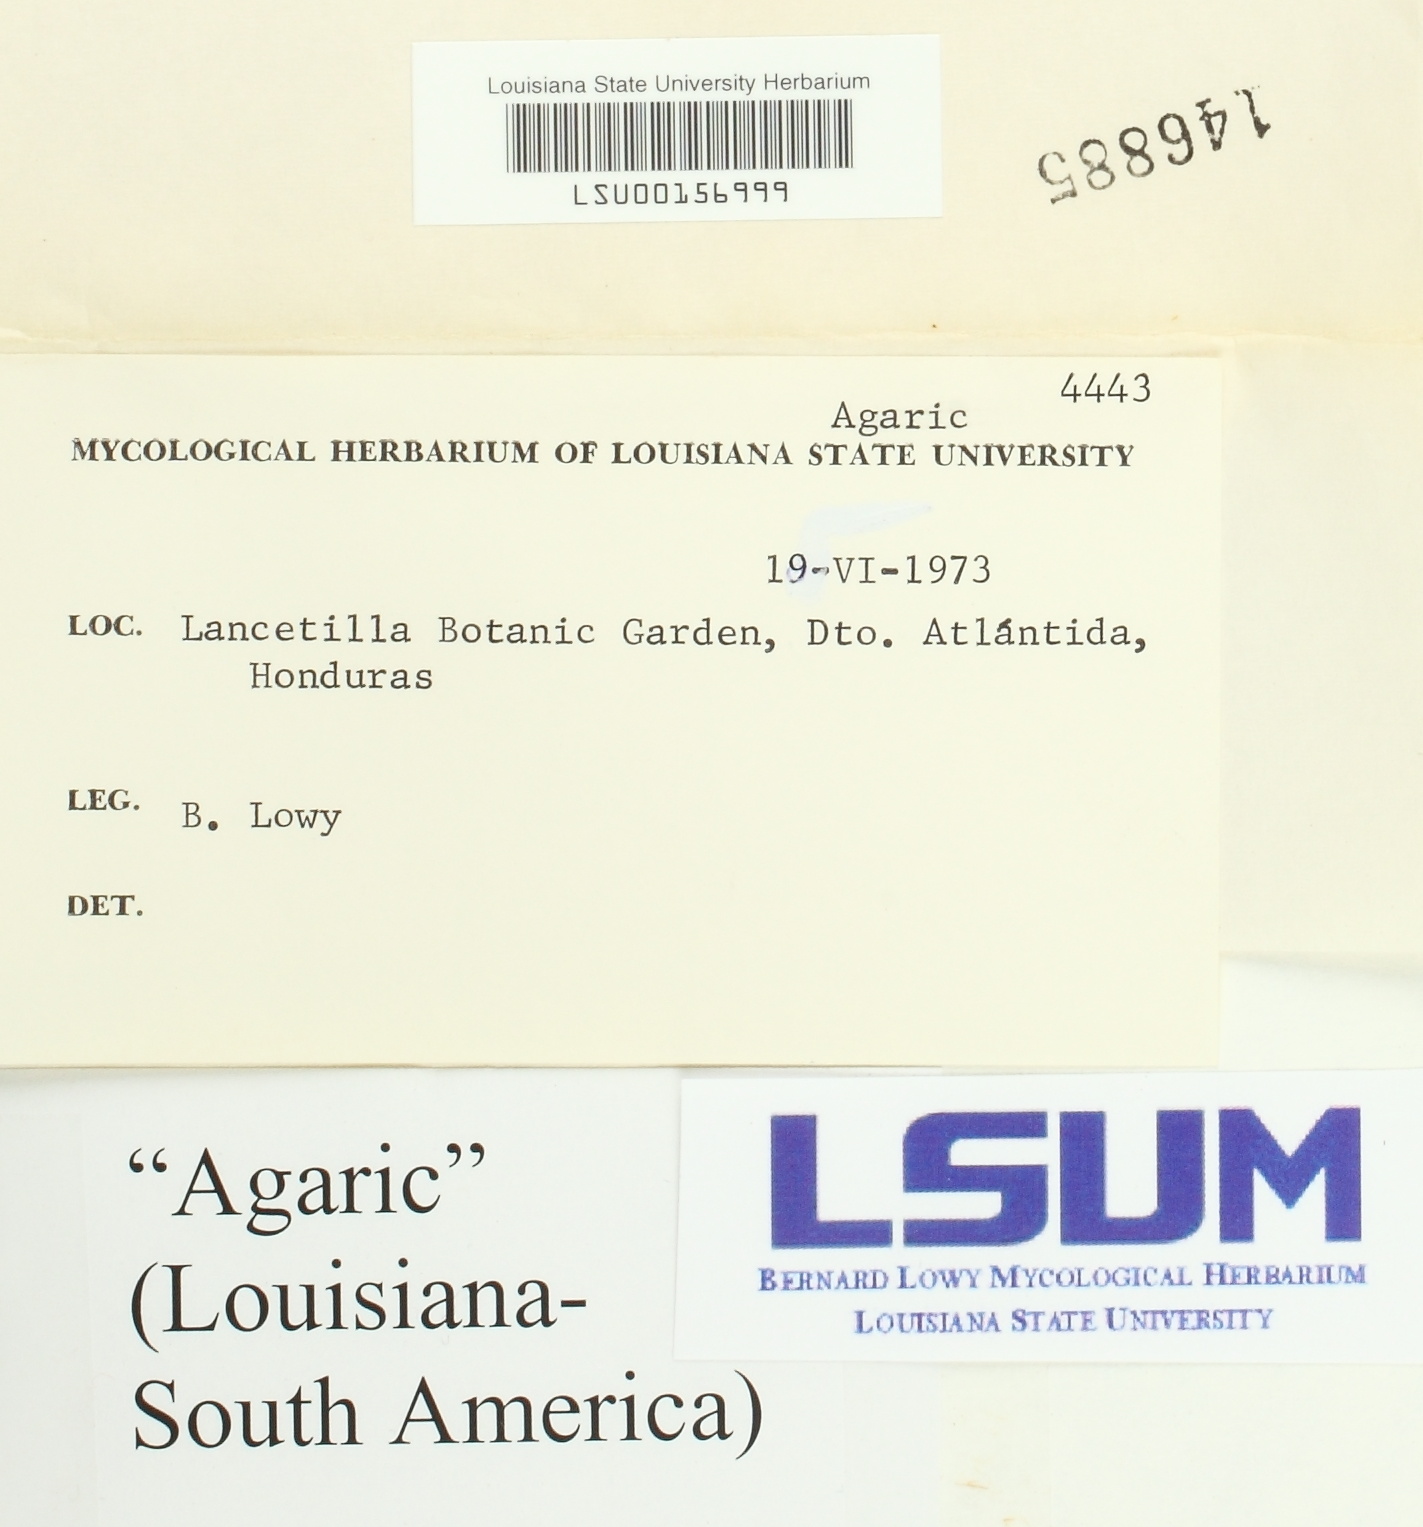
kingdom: Fungi
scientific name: Fungi
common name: Fungi
